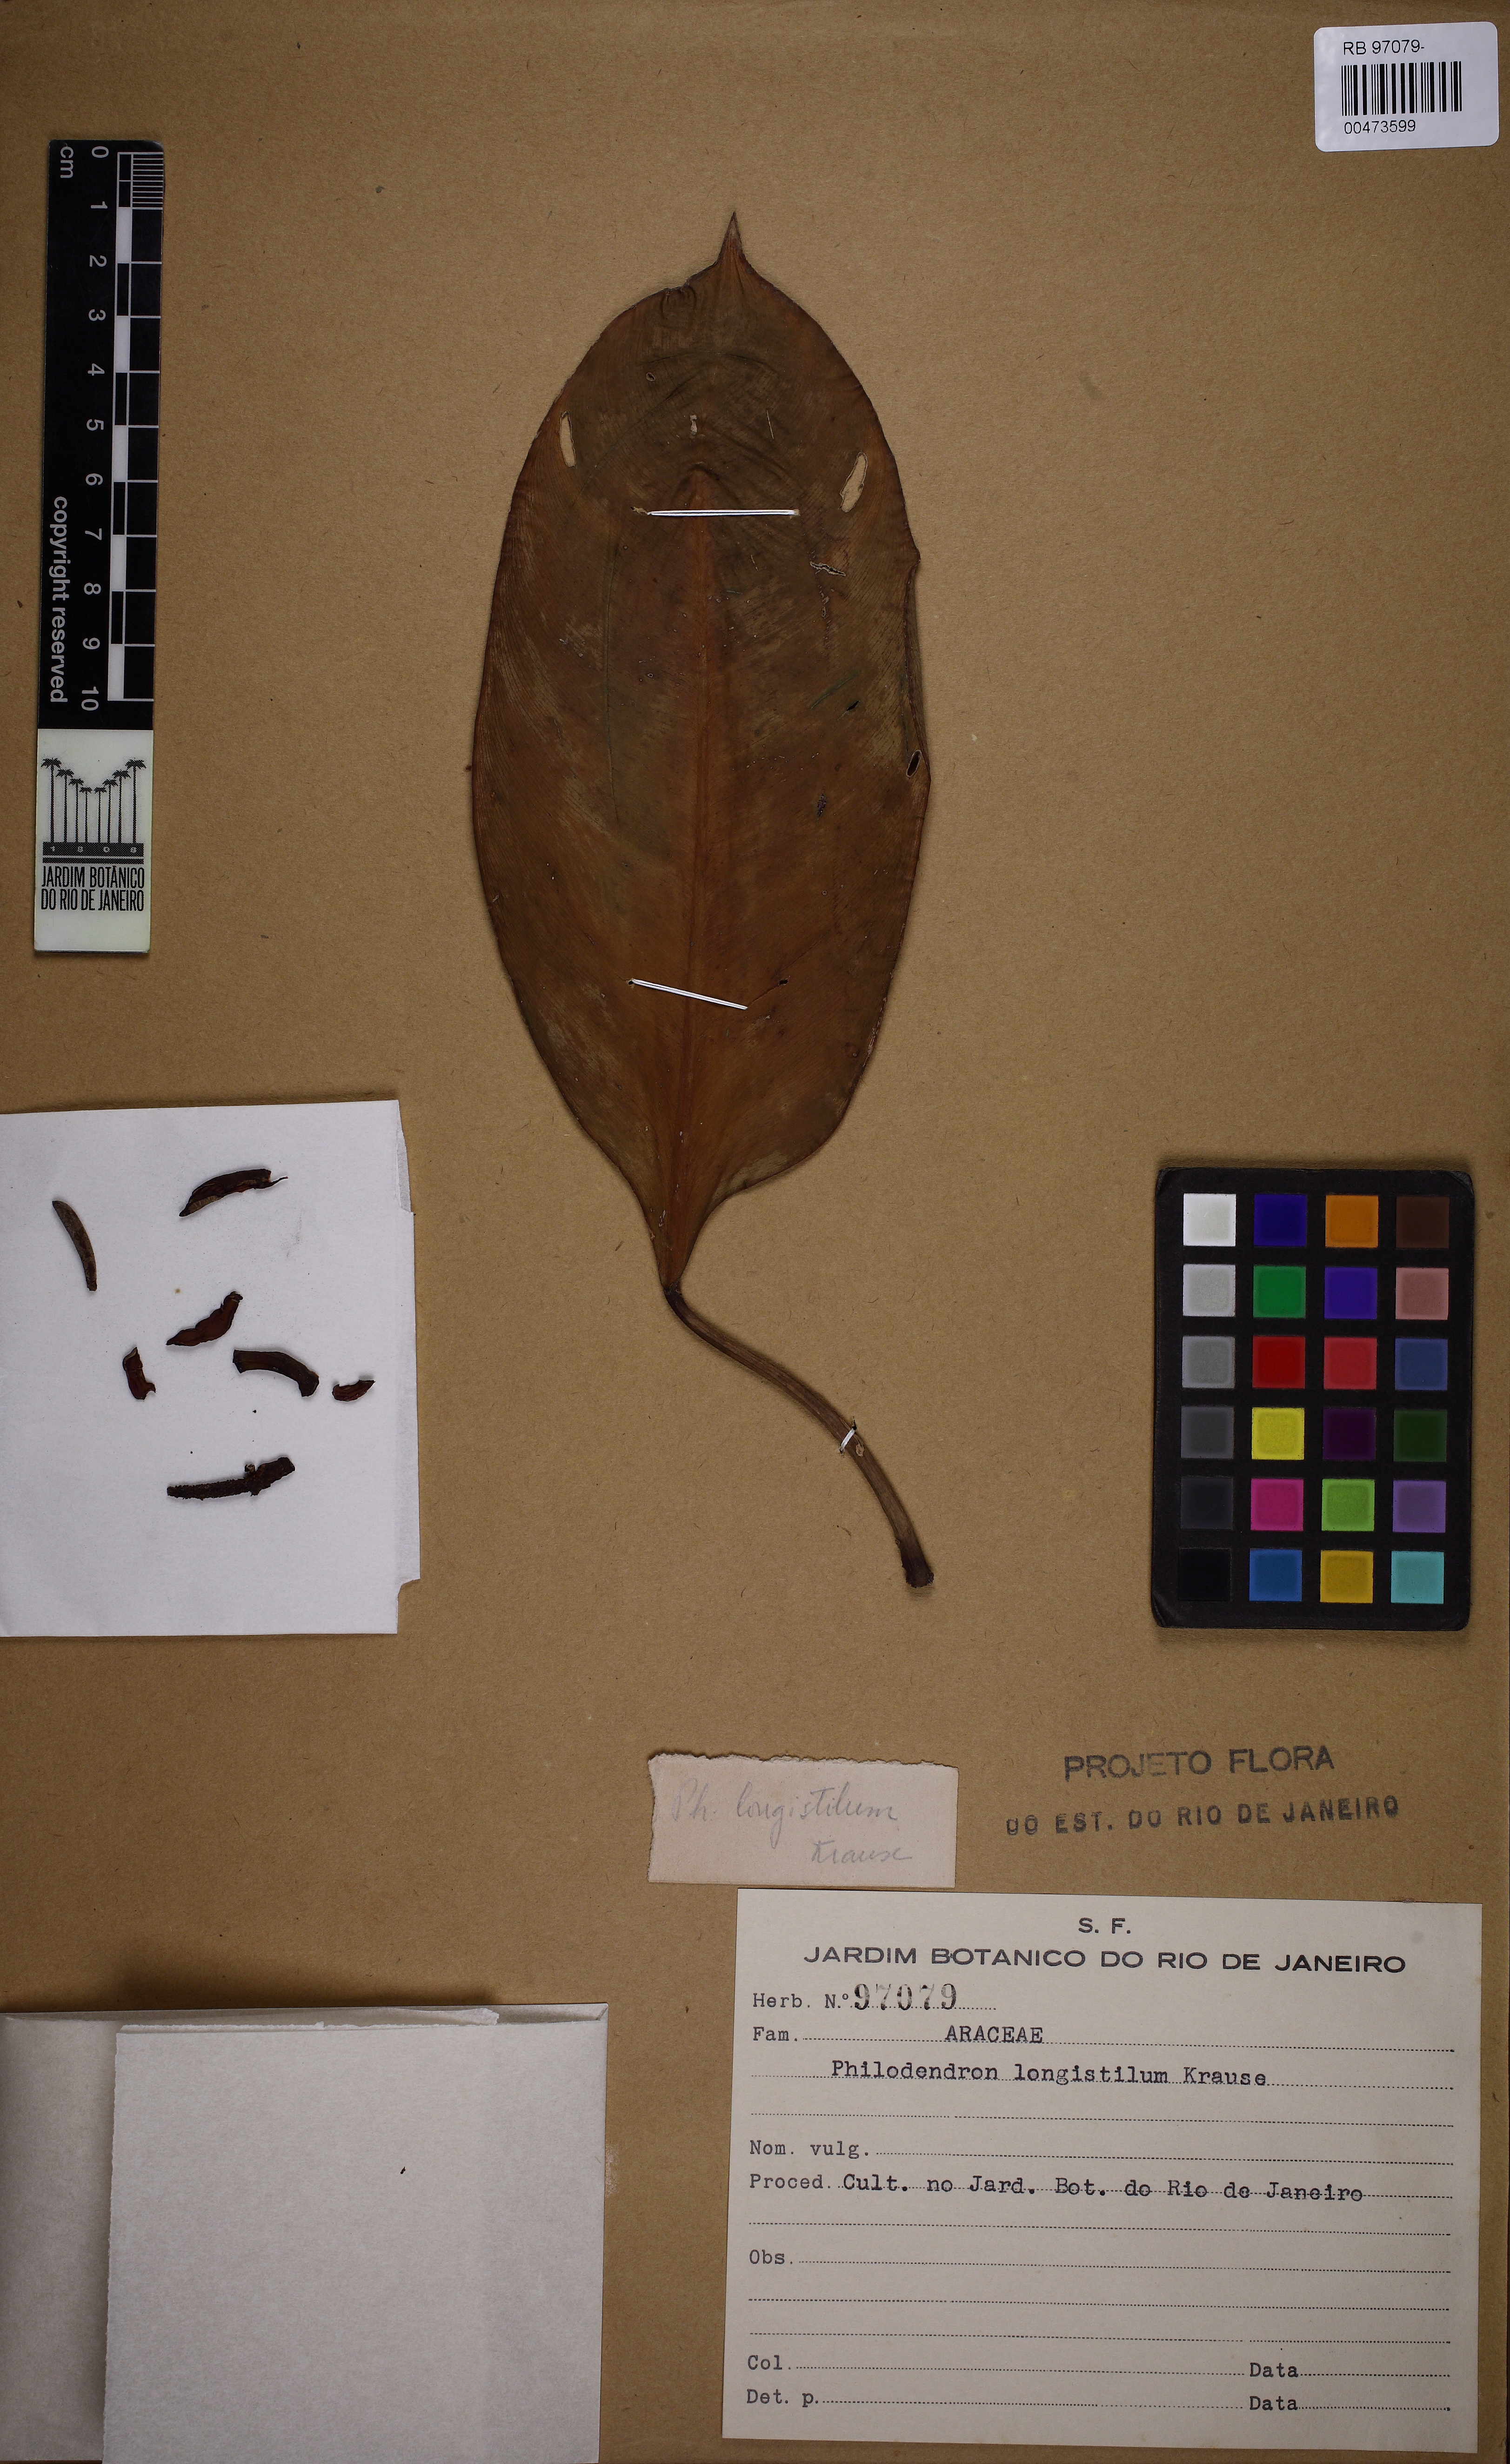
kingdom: Plantae
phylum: Tracheophyta
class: Liliopsida
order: Alismatales
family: Araceae
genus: Philodendron
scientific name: Philodendron longistilum
